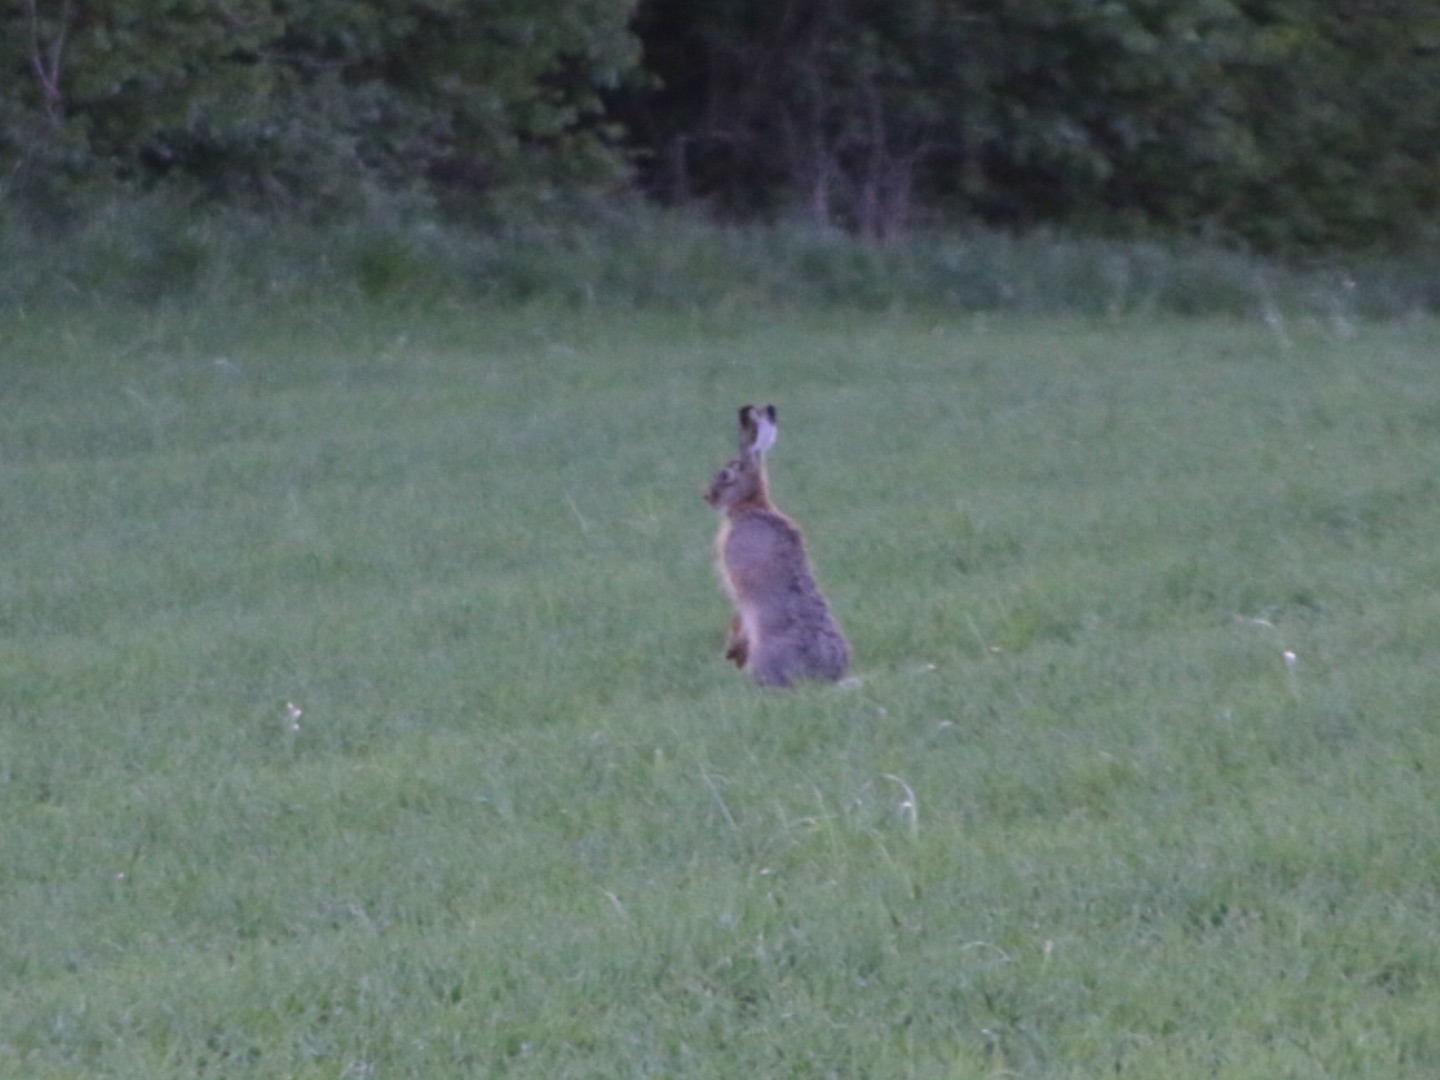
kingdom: Animalia
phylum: Chordata
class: Mammalia
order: Lagomorpha
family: Leporidae
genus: Lepus
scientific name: Lepus europaeus
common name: Hare
